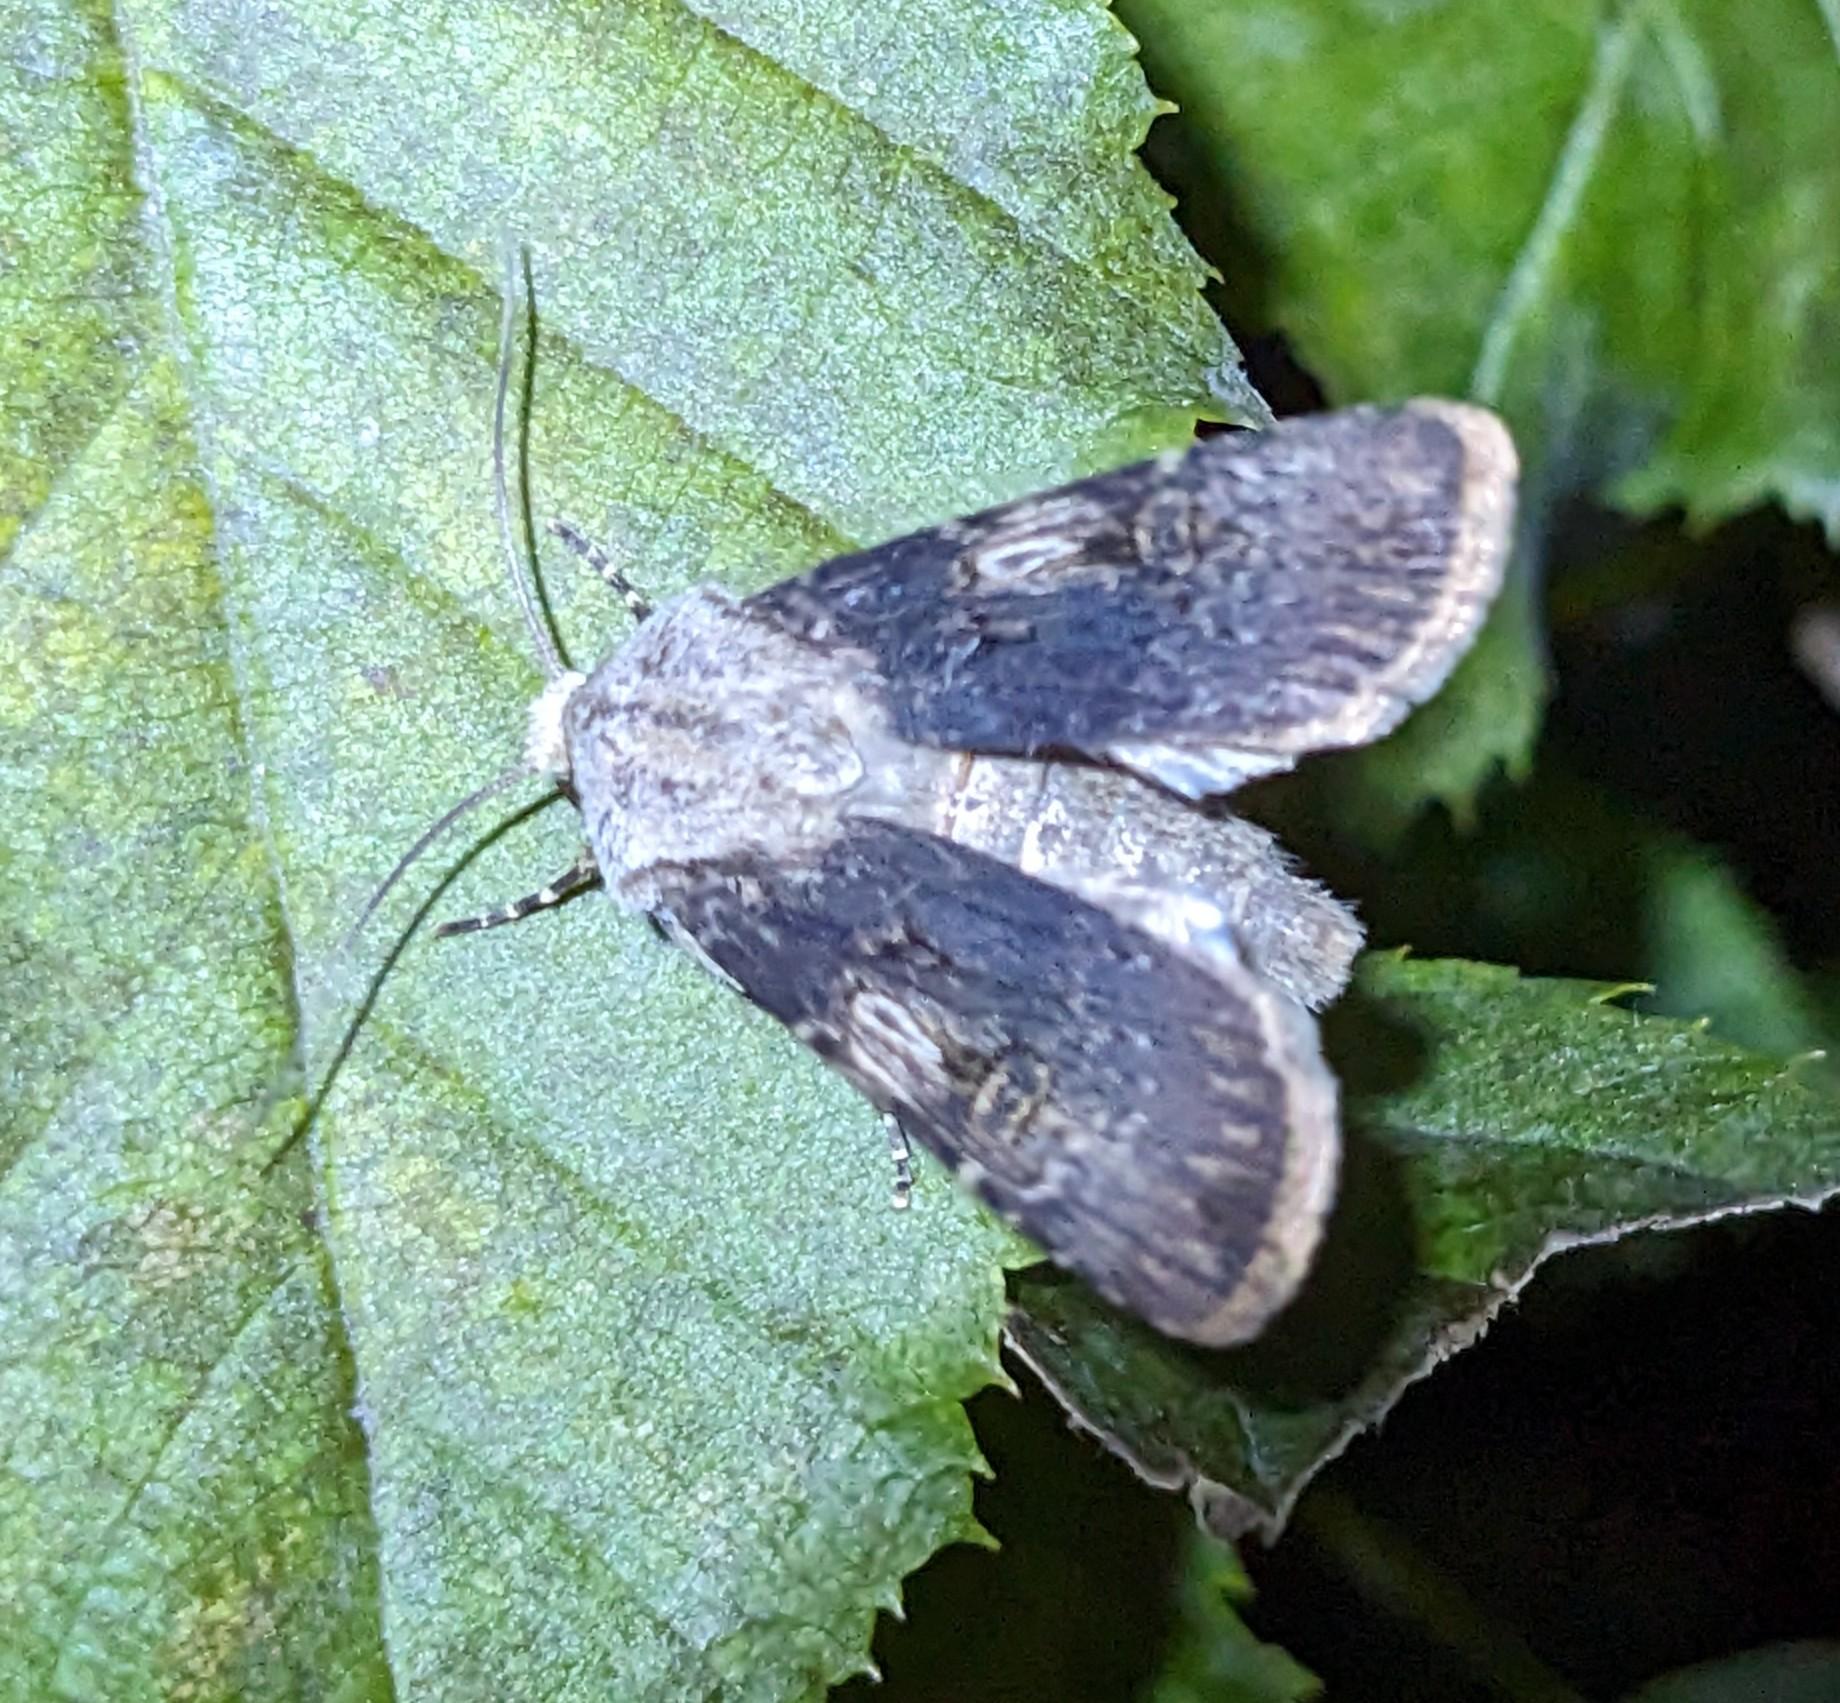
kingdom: Animalia
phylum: Arthropoda
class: Insecta
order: Lepidoptera
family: Noctuidae
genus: Agrotis
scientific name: Agrotis puta
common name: Frønnet landmand
